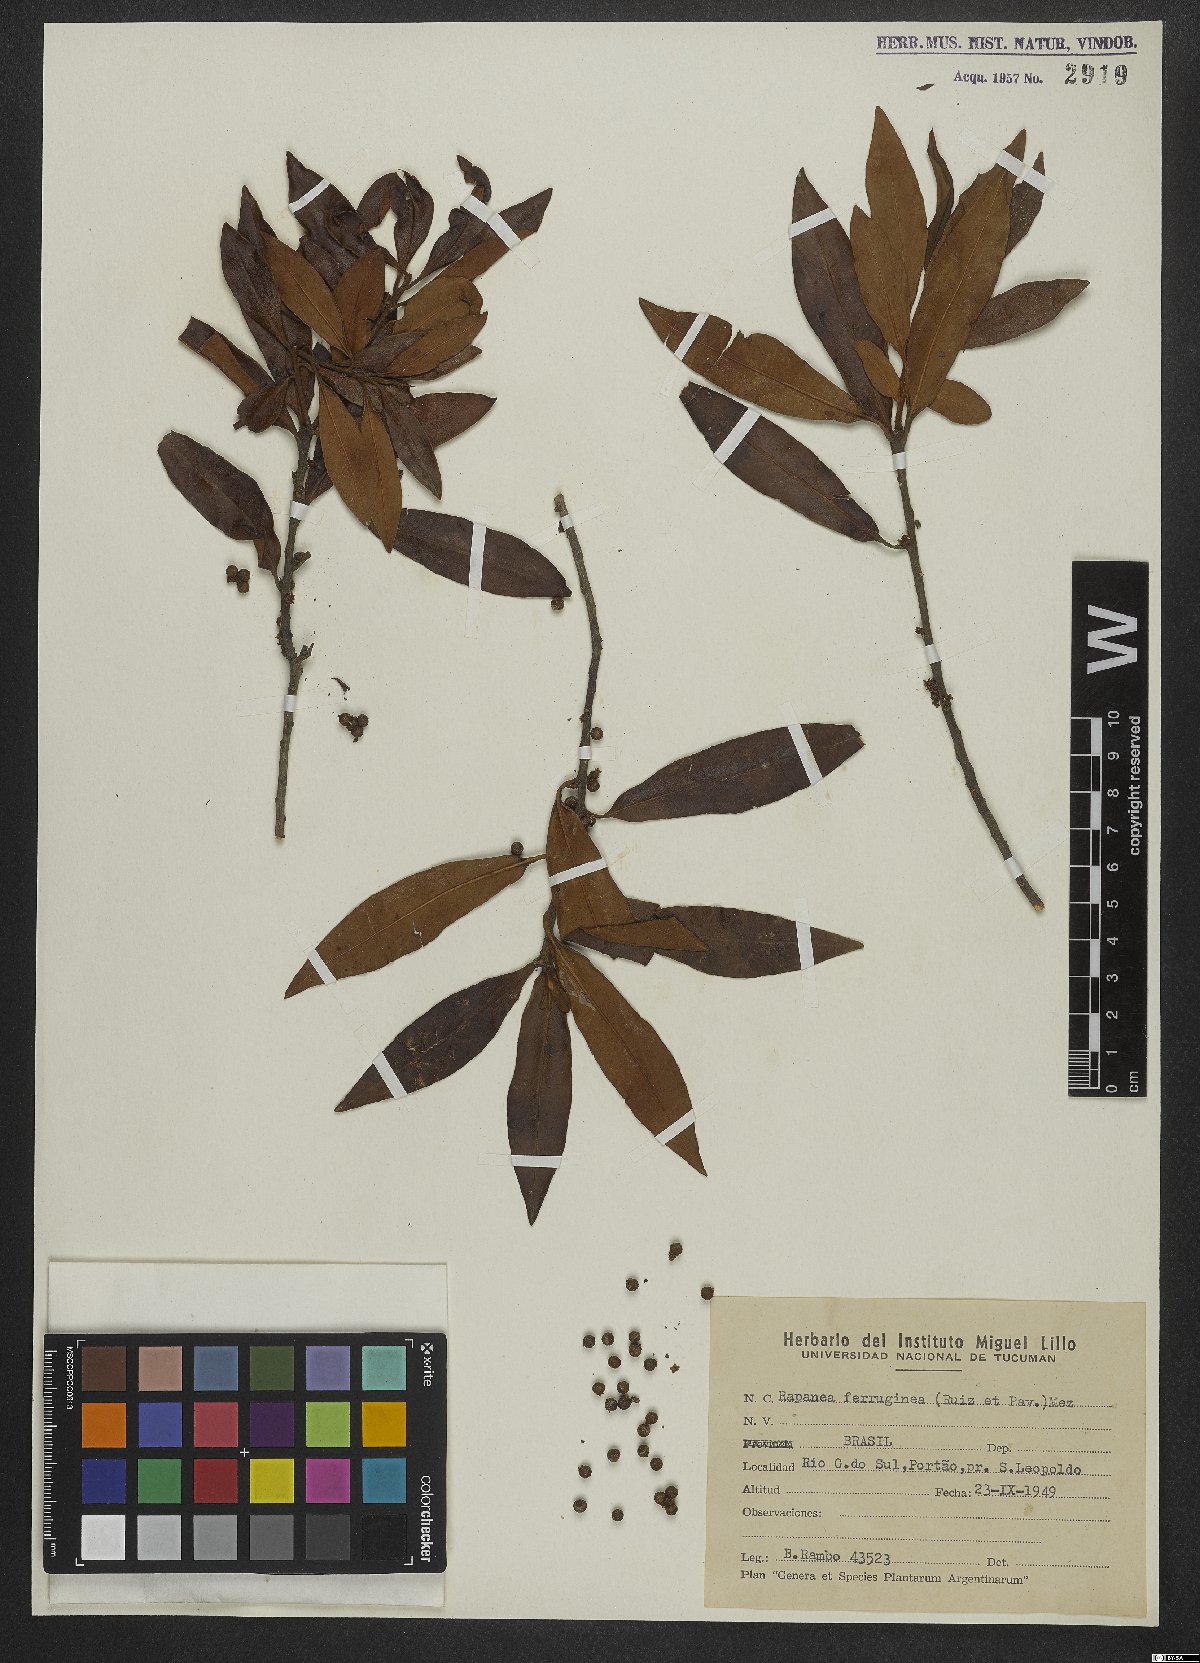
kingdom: Plantae
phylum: Tracheophyta
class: Magnoliopsida
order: Ericales
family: Primulaceae
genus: Myrsine
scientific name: Myrsine coriacea
